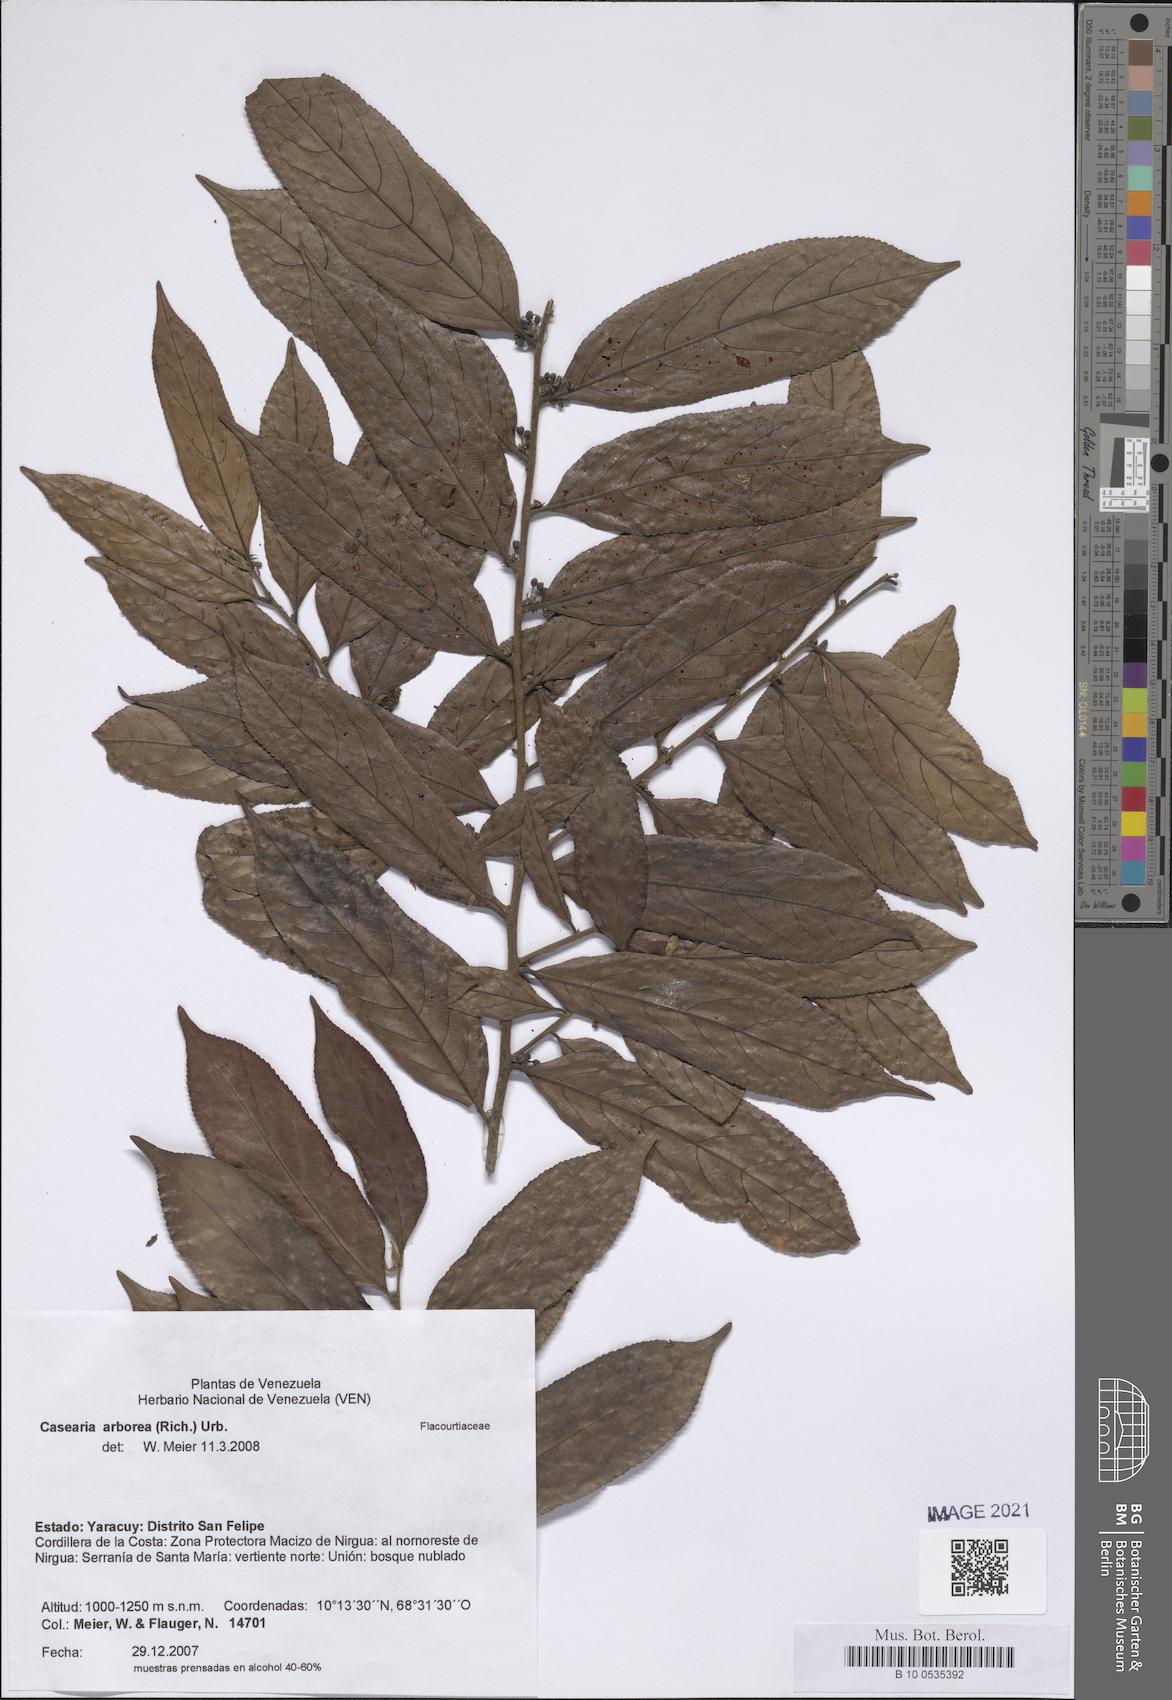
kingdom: Plantae
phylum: Tracheophyta
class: Magnoliopsida
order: Malpighiales
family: Salicaceae
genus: Casearia
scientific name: Casearia arborea
